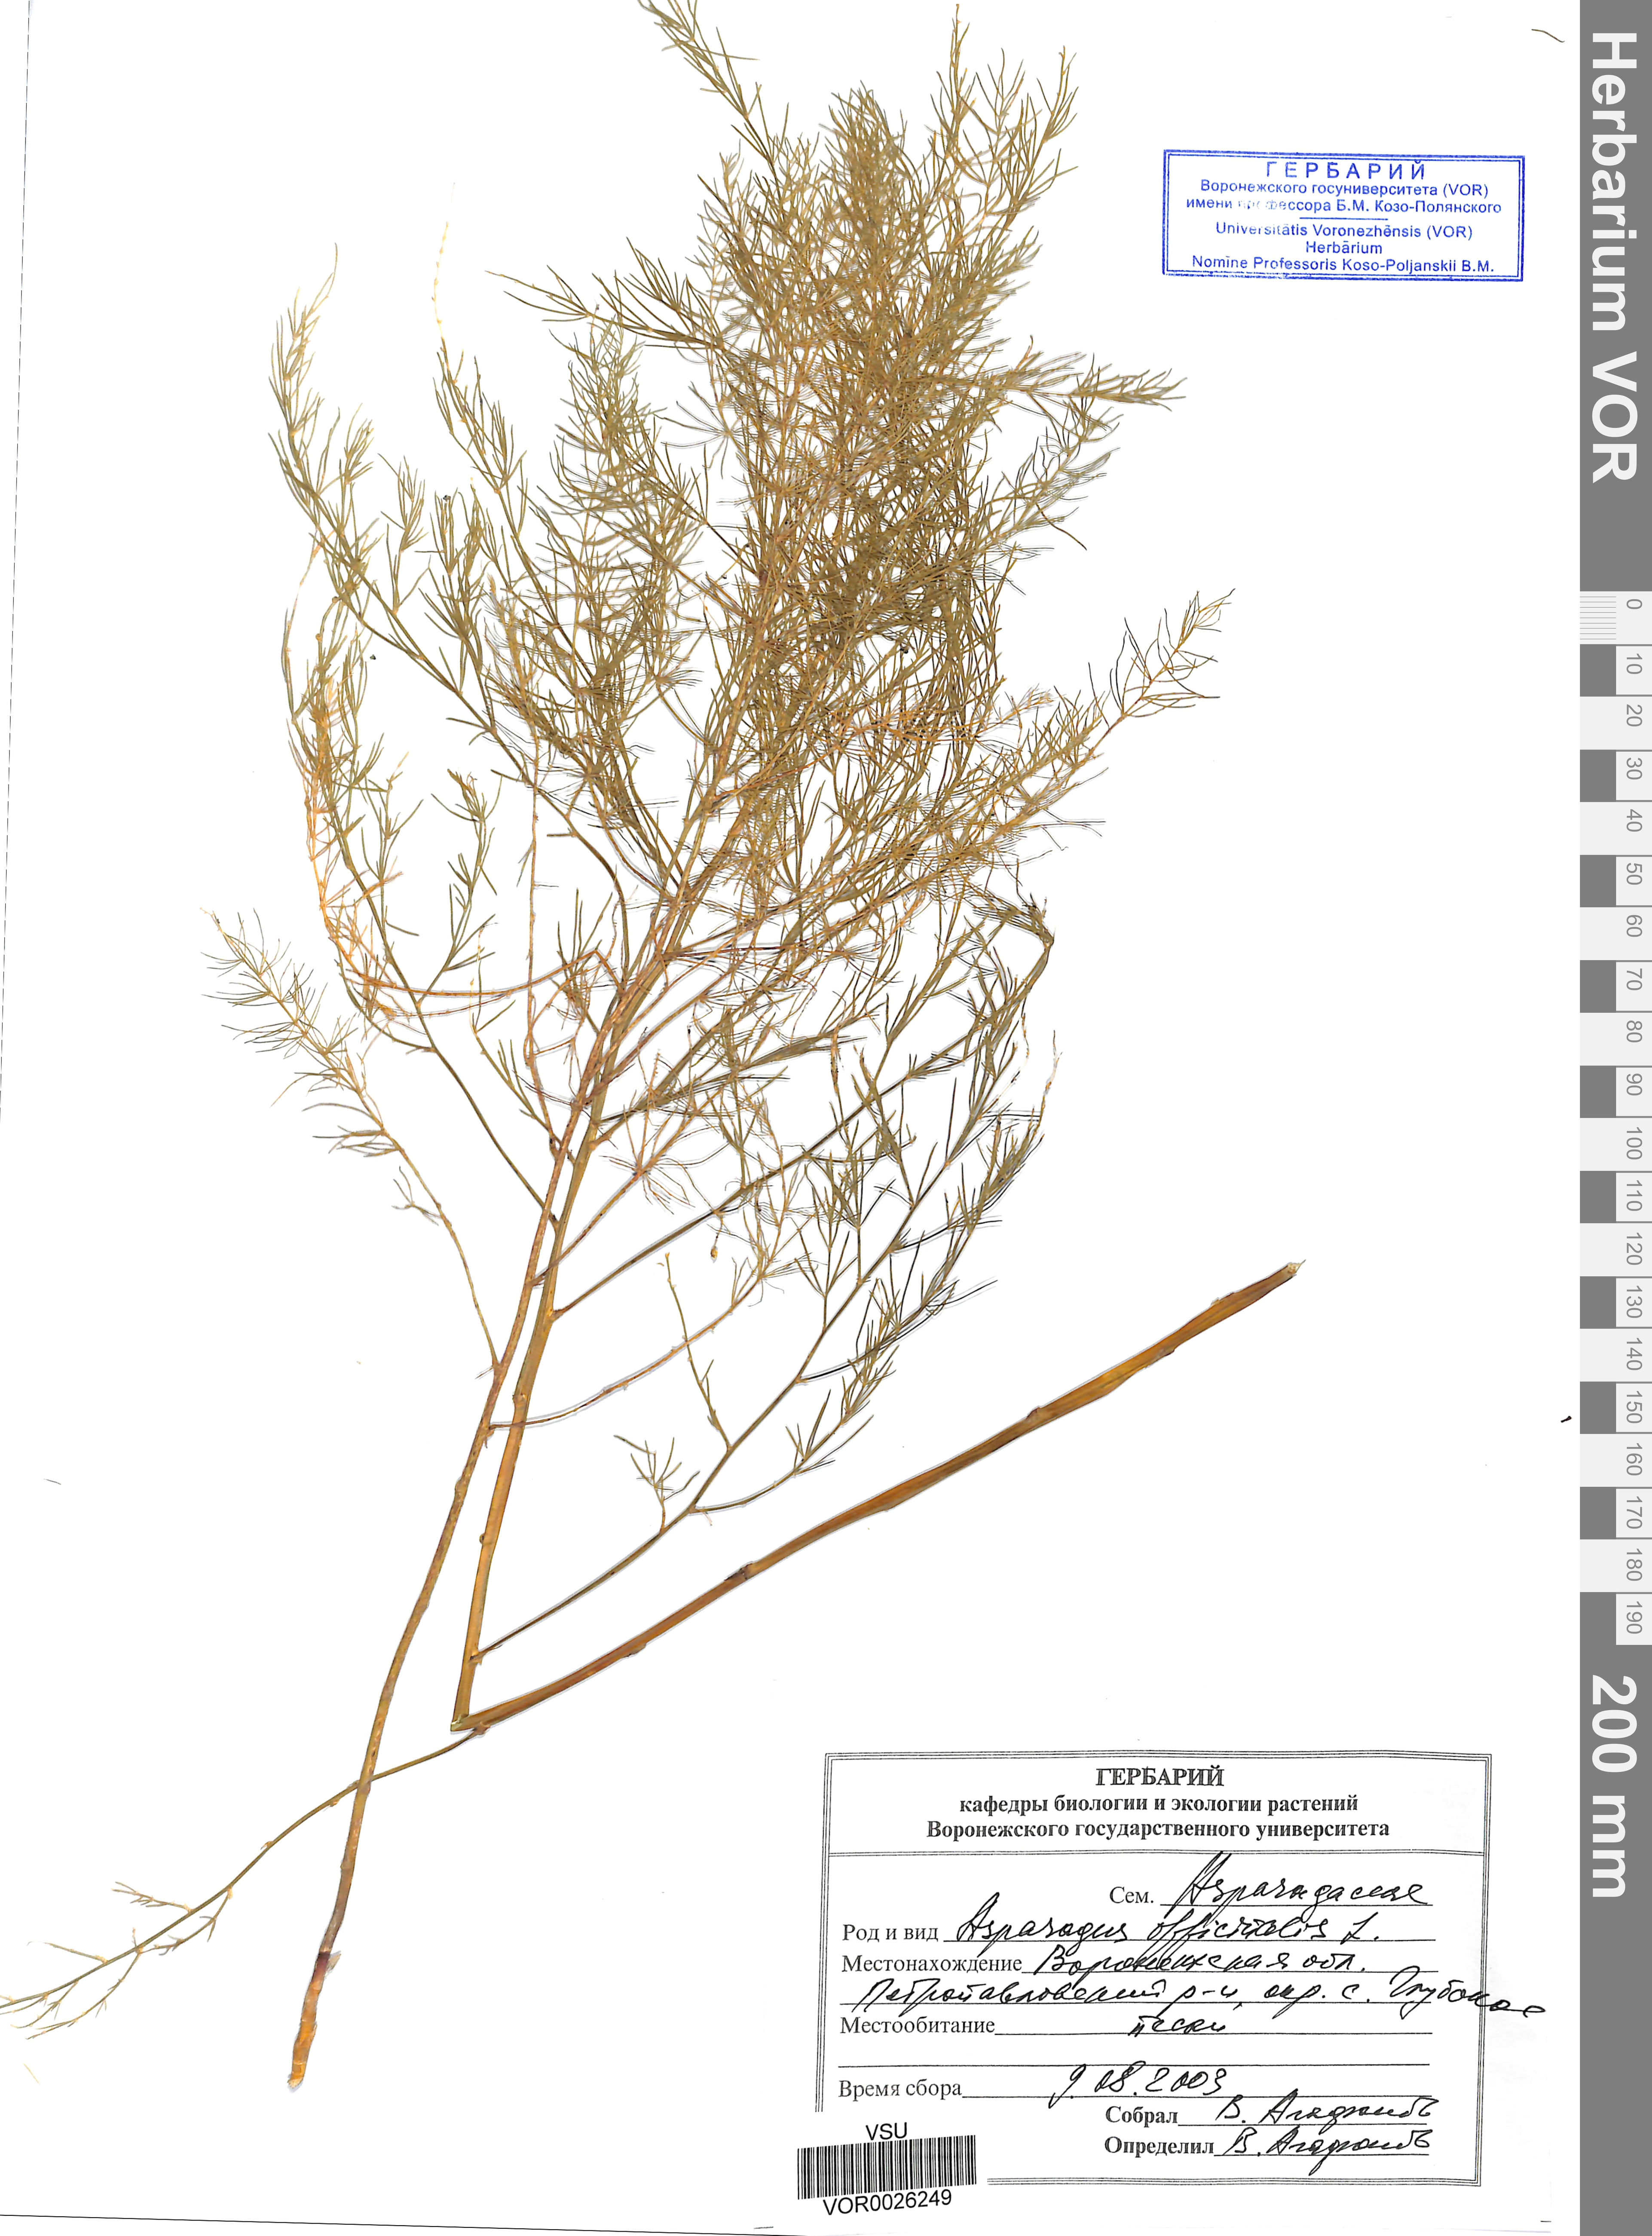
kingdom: Plantae
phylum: Tracheophyta
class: Liliopsida
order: Asparagales
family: Asparagaceae
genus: Asparagus
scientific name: Asparagus officinalis
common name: Garden asparagus
